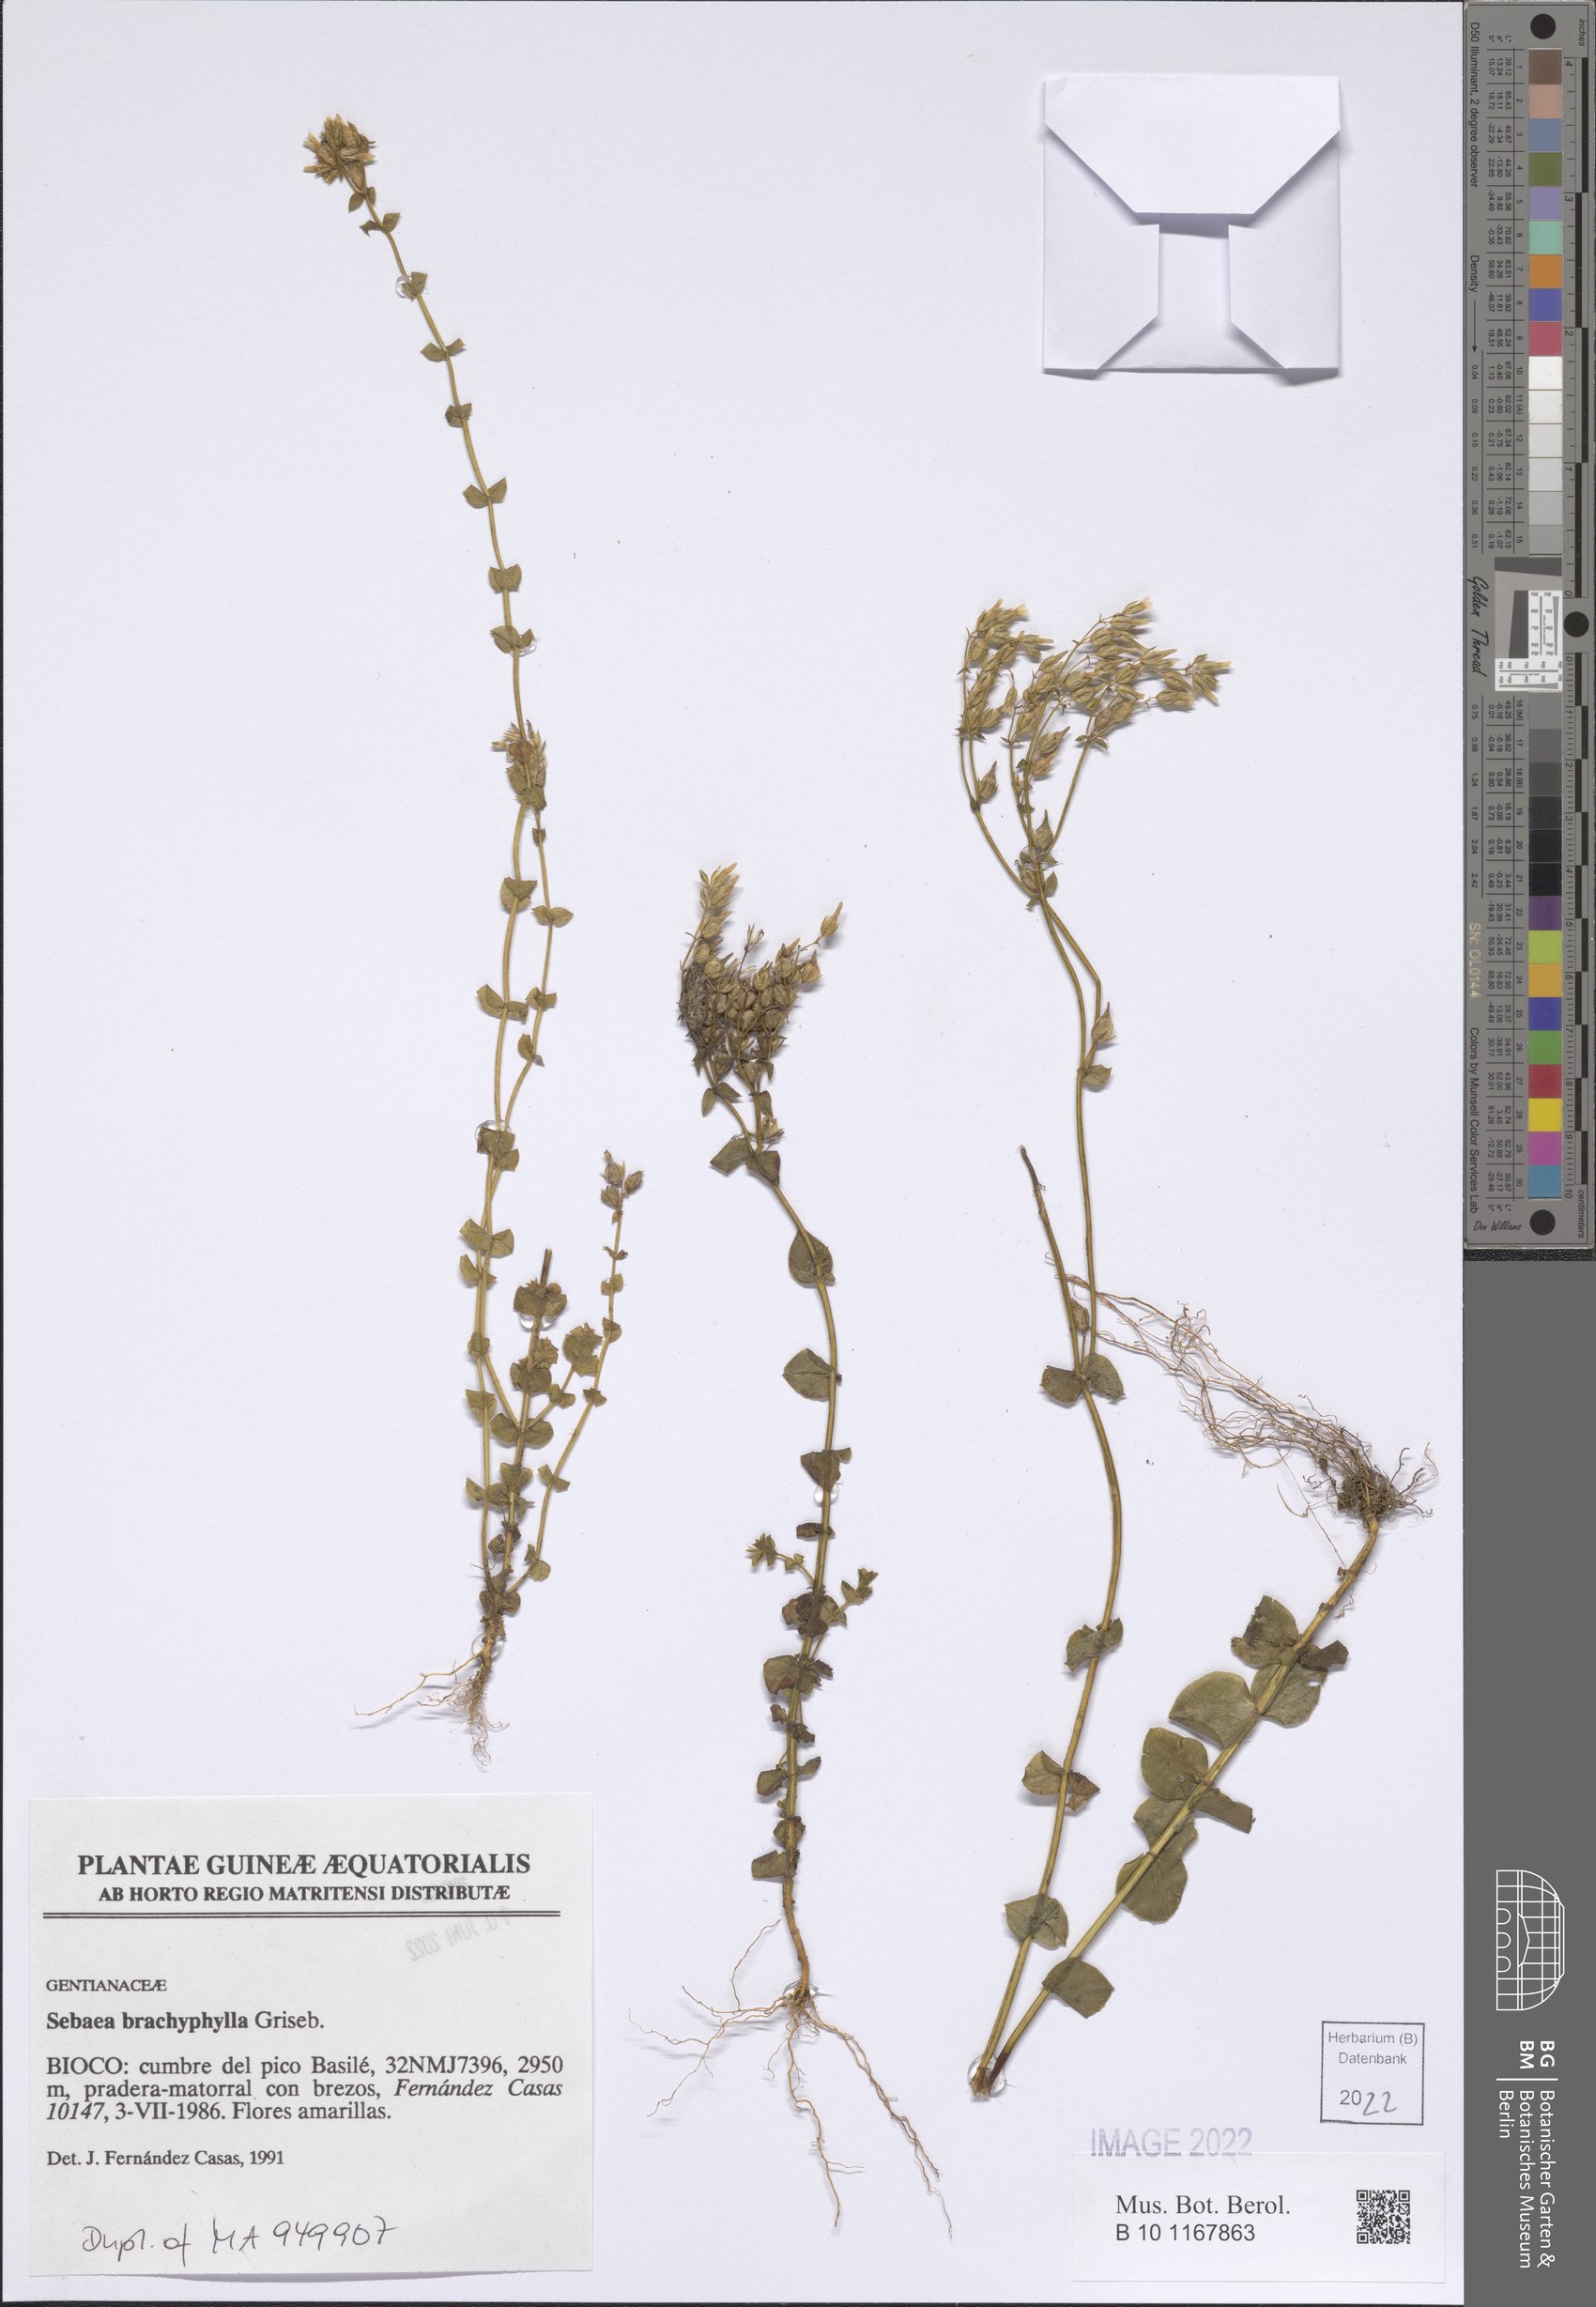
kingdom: Plantae
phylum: Tracheophyta
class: Magnoliopsida
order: Gentianales
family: Gentianaceae
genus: Sebaea
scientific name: Sebaea brachyphylla
